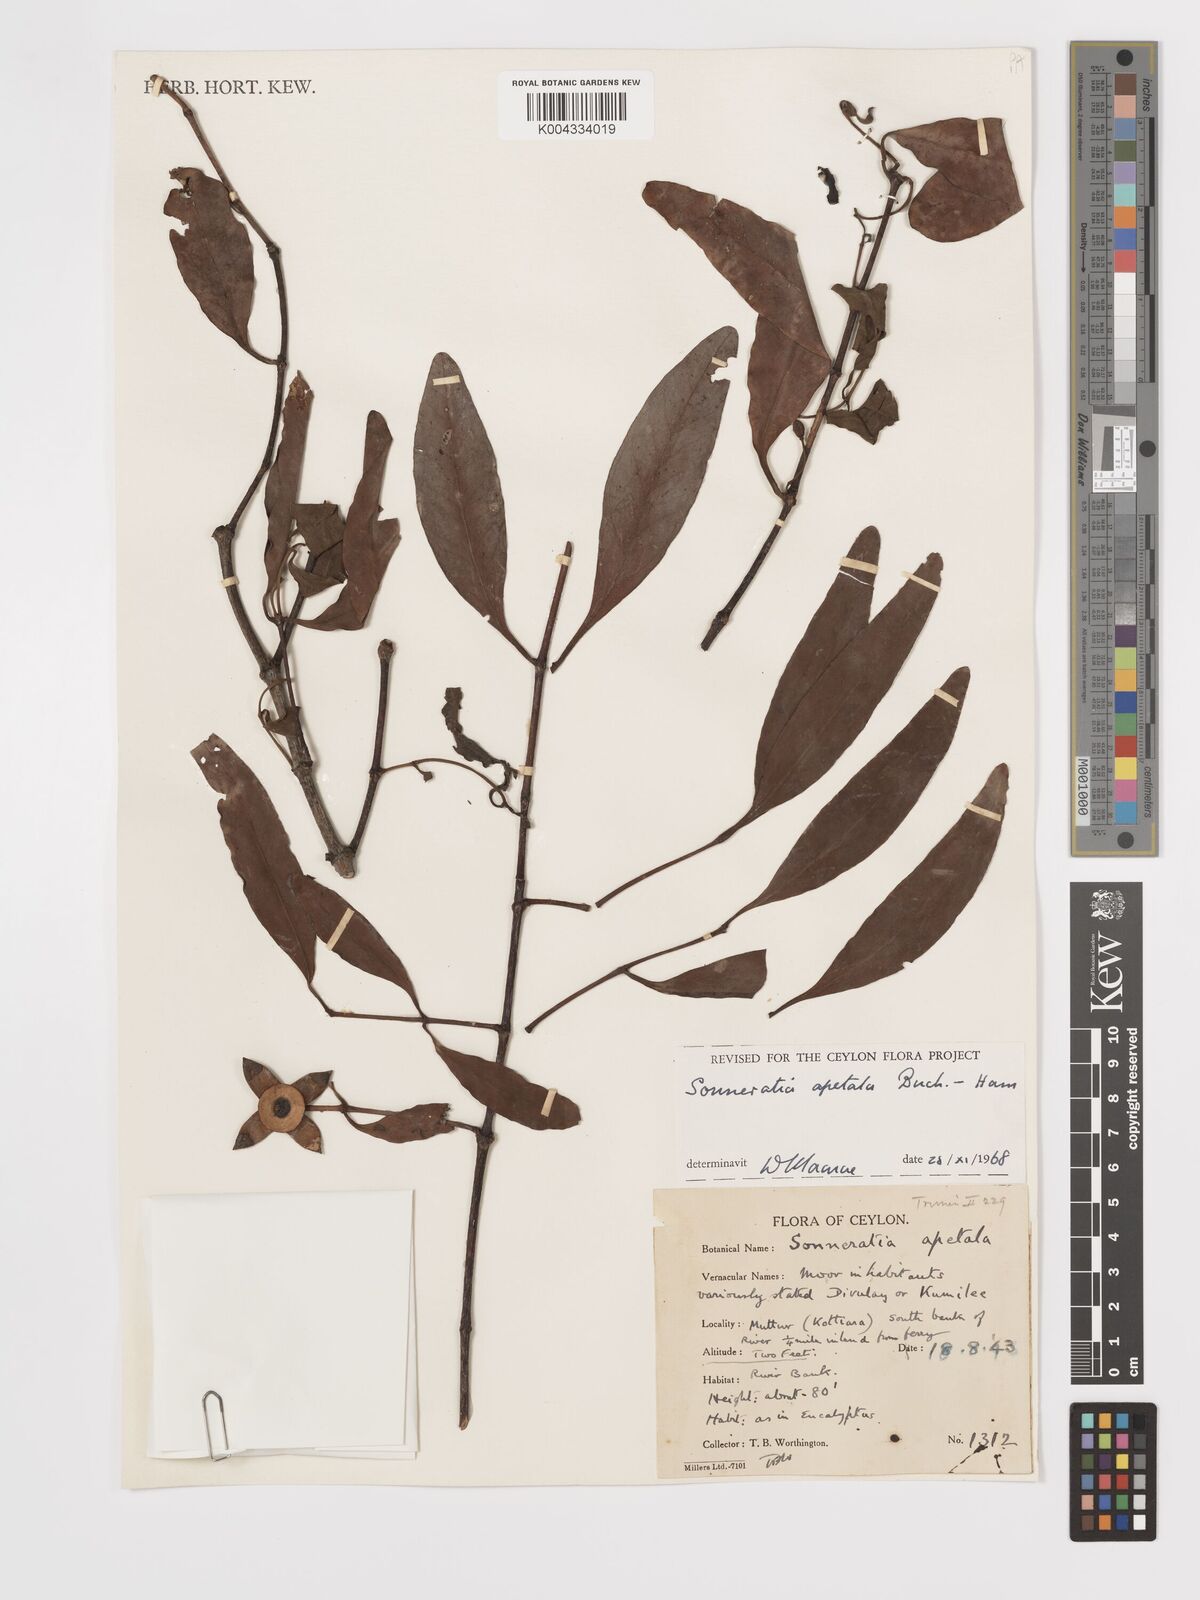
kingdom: Plantae
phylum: Tracheophyta
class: Magnoliopsida
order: Myrtales
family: Lythraceae
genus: Sonneratia
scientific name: Sonneratia apetala
